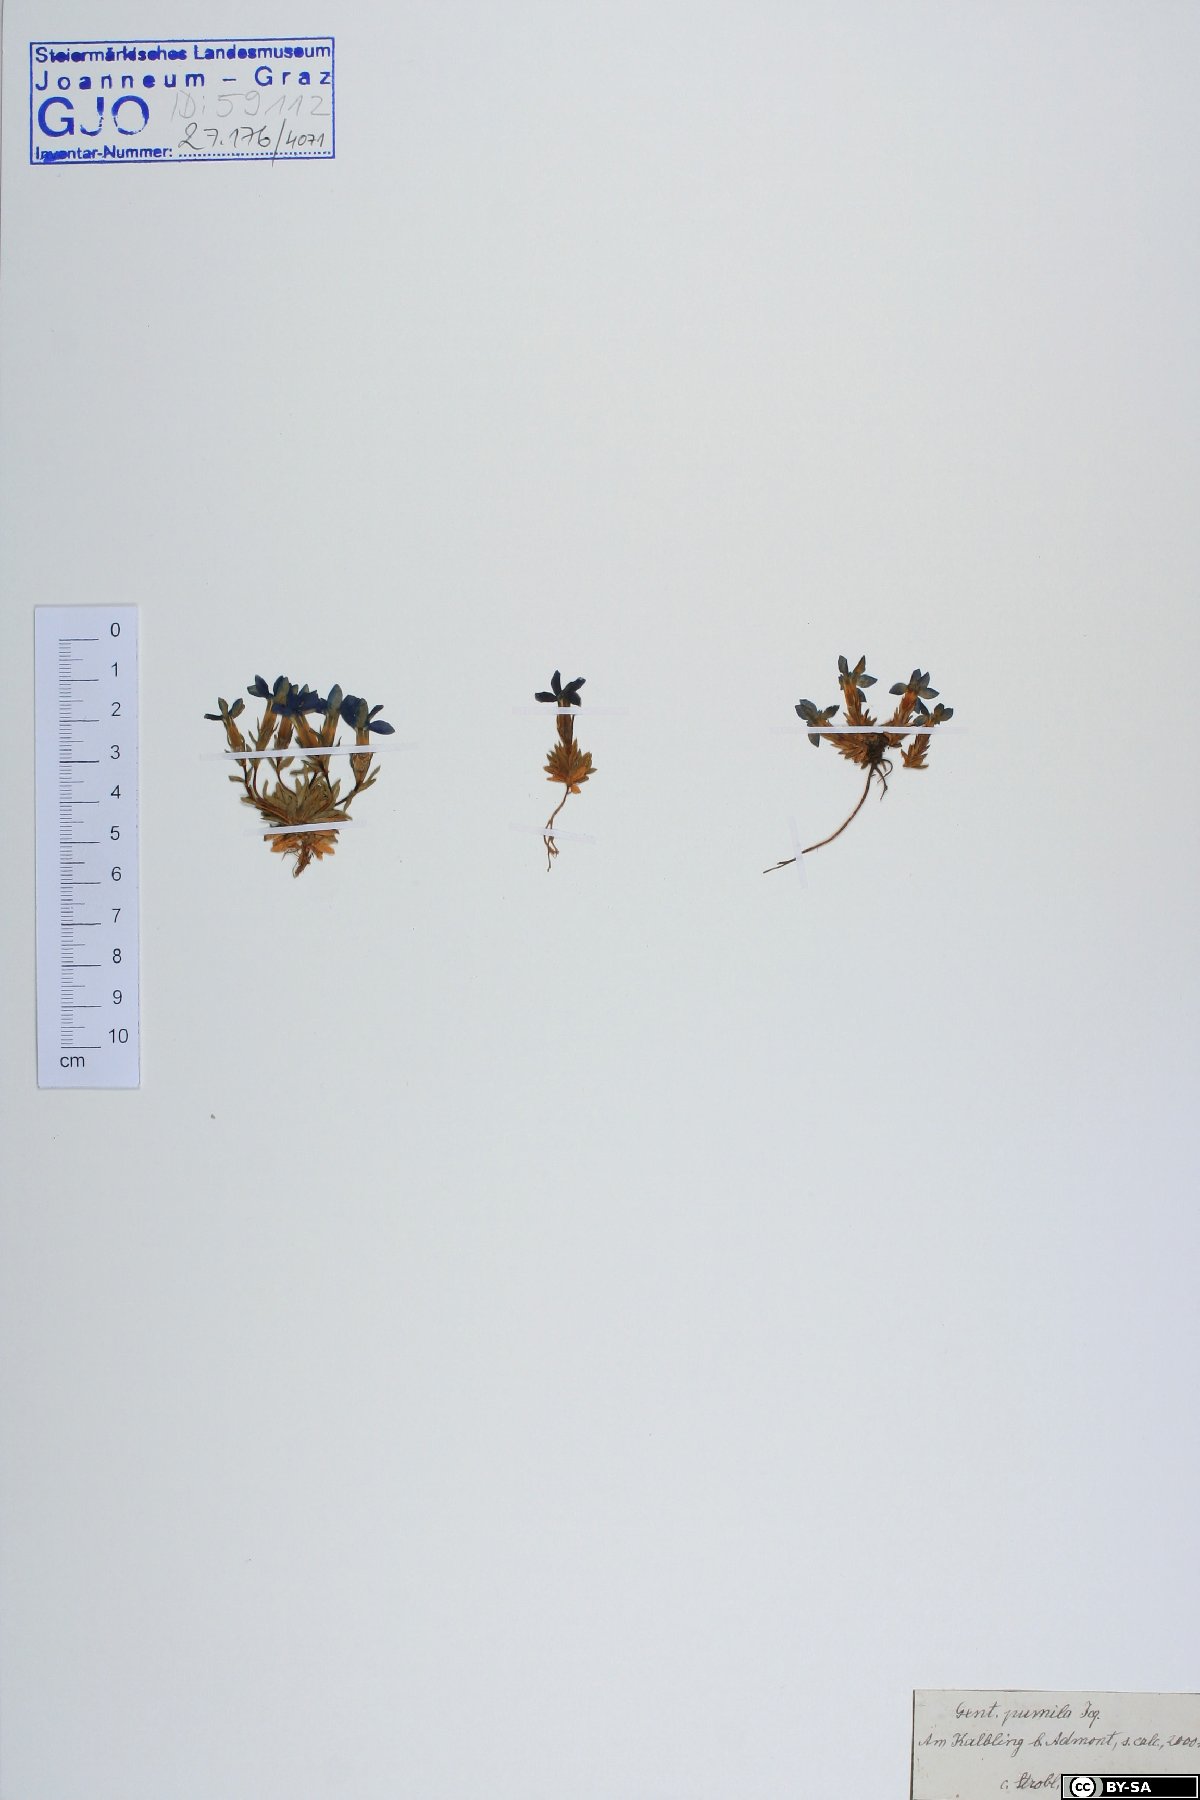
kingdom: Plantae
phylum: Tracheophyta
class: Magnoliopsida
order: Gentianales
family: Gentianaceae
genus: Gentiana
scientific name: Gentiana pumila
